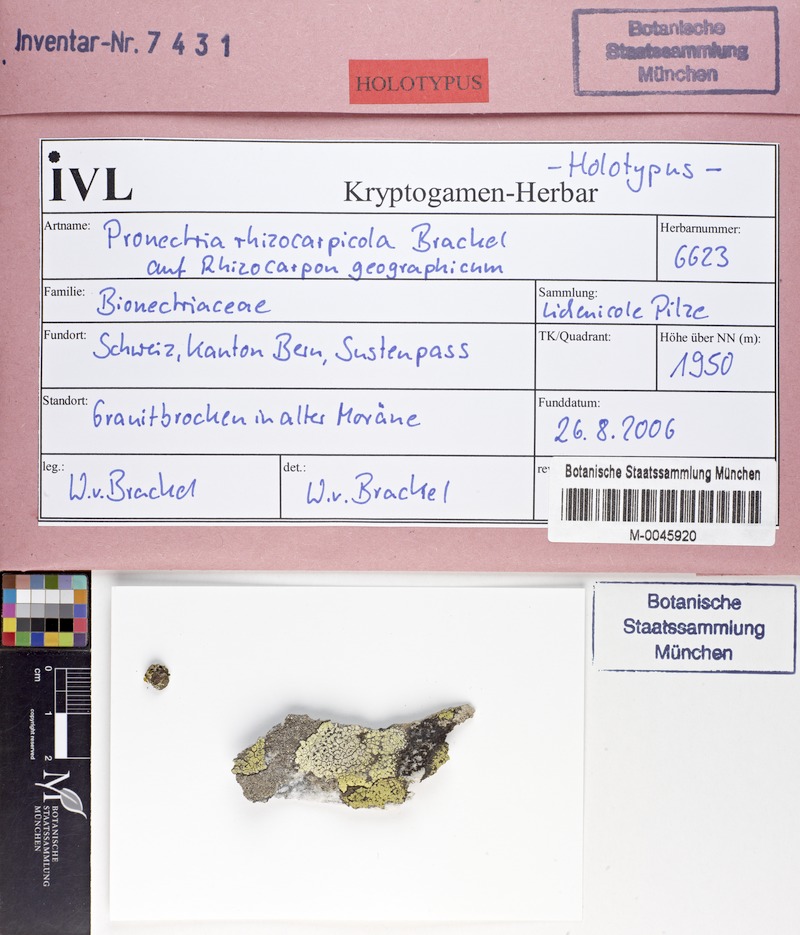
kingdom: Fungi
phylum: Ascomycota
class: Lecanoromycetes
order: Rhizocarpales
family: Rhizocarpaceae
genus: Rhizocarpon
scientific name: Rhizocarpon geographicum
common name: Yellow map lichen
